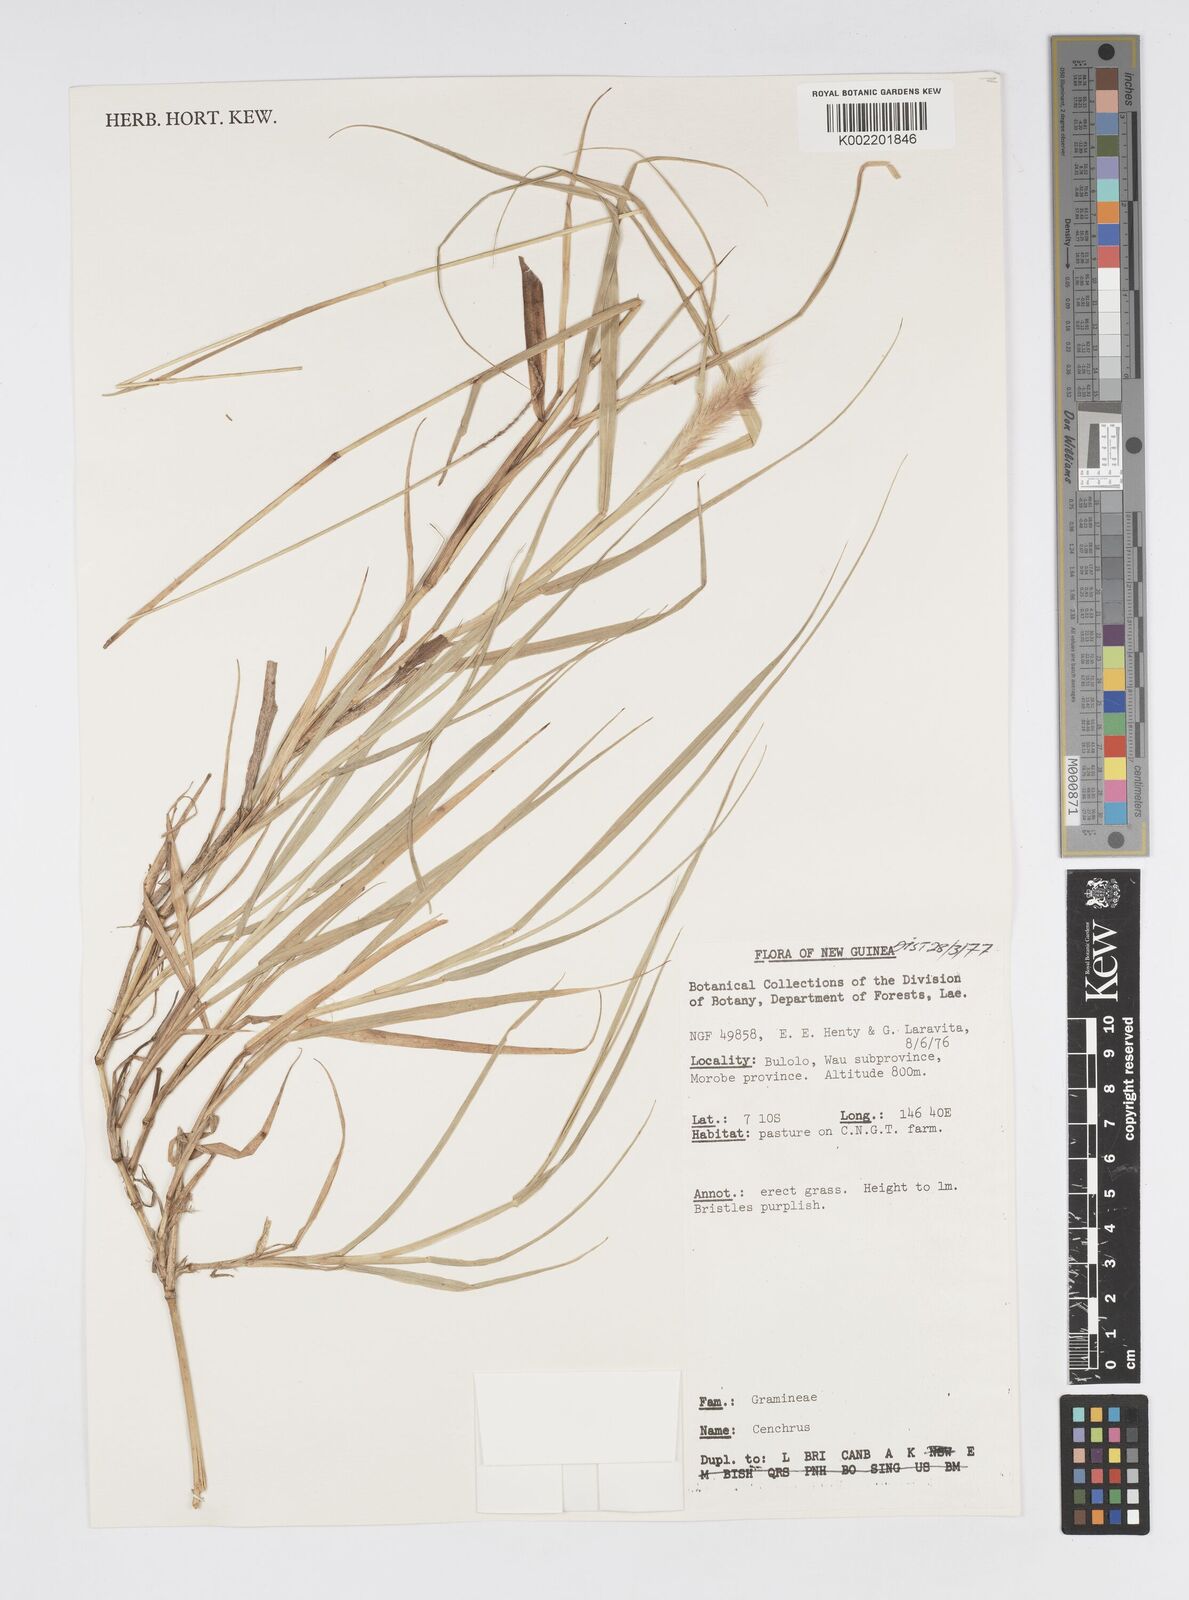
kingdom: Plantae
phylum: Tracheophyta
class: Liliopsida
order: Poales
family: Poaceae
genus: Setaria
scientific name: Setaria parviflora
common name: Knotroot bristle-grass
